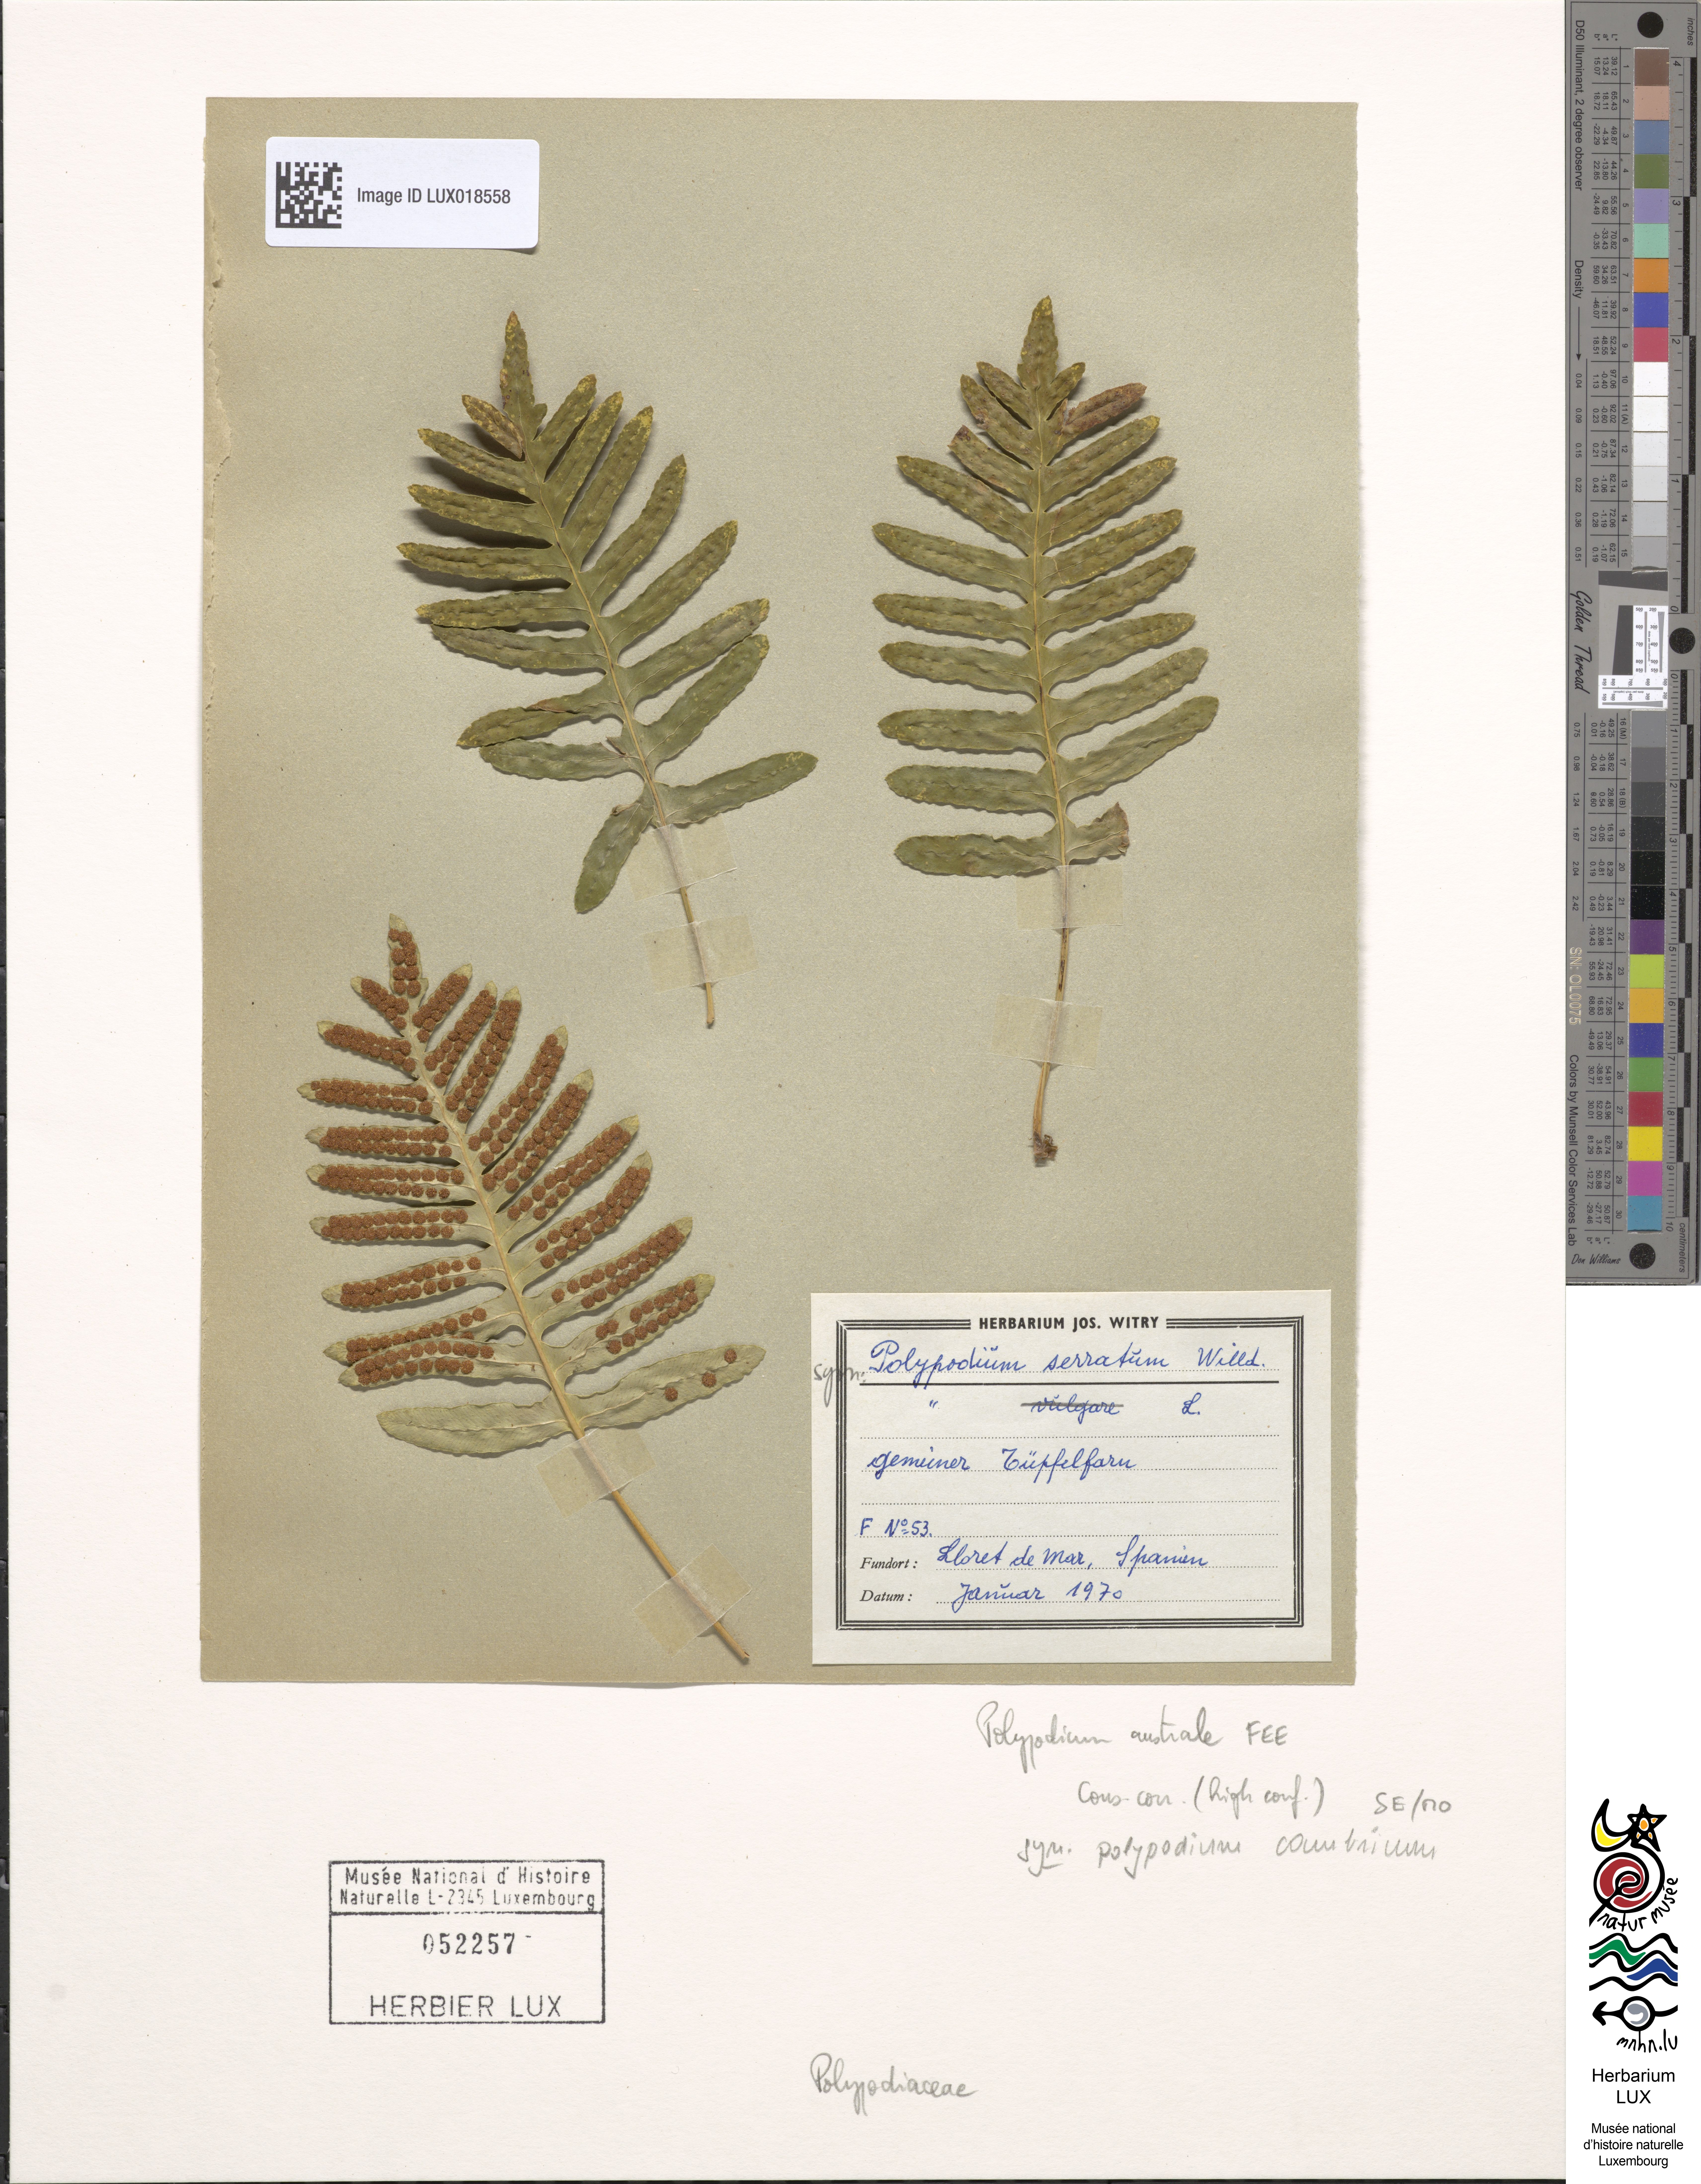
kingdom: Plantae
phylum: Tracheophyta
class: Polypodiopsida
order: Polypodiales
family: Polypodiaceae
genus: Polypodium
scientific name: Polypodium cambricum
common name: Southern polypody
